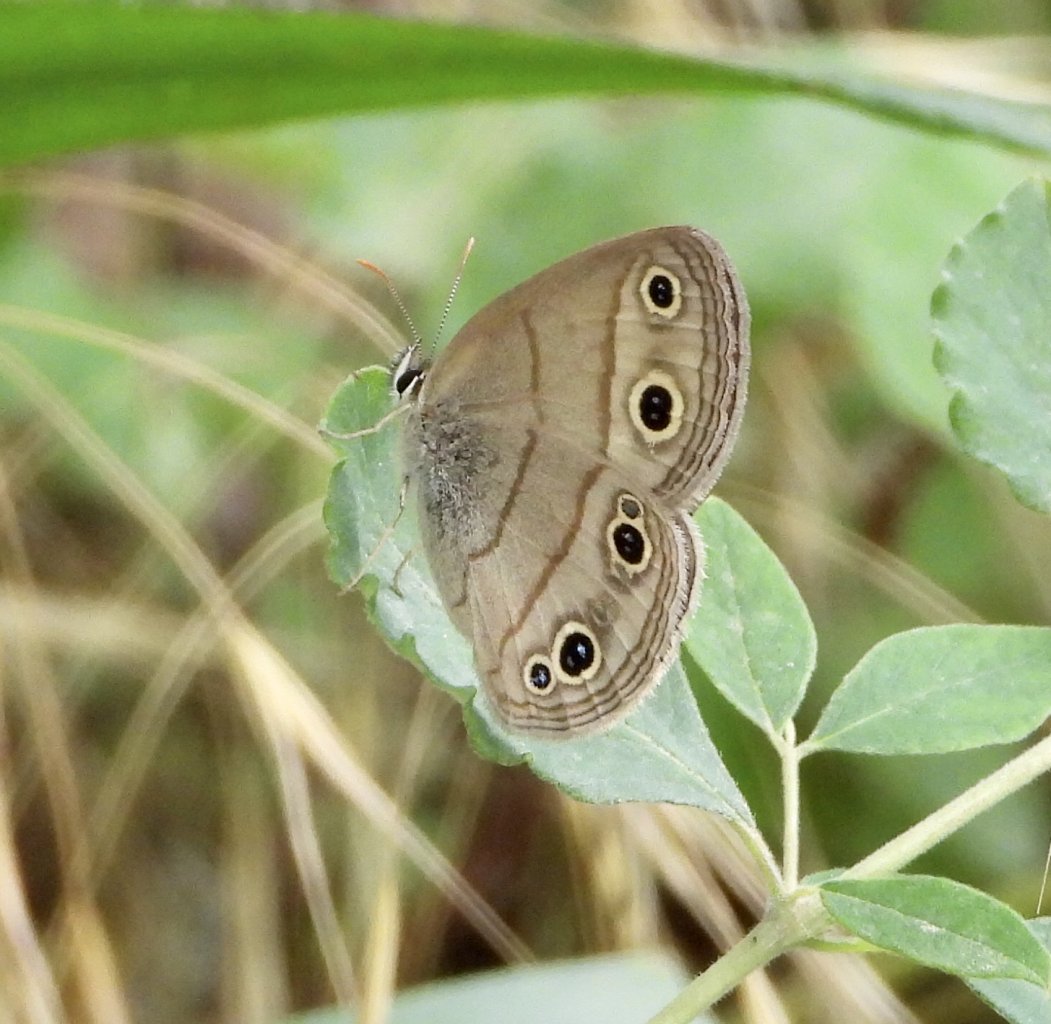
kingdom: Animalia
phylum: Arthropoda
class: Insecta
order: Lepidoptera
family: Nymphalidae
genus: Euptychia
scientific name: Euptychia cymela
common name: Little Wood Satyr
